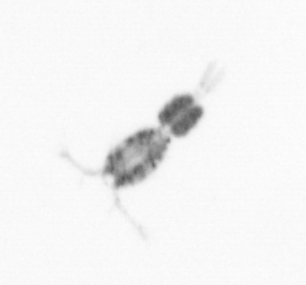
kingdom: Animalia
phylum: Arthropoda
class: Copepoda
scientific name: Copepoda
